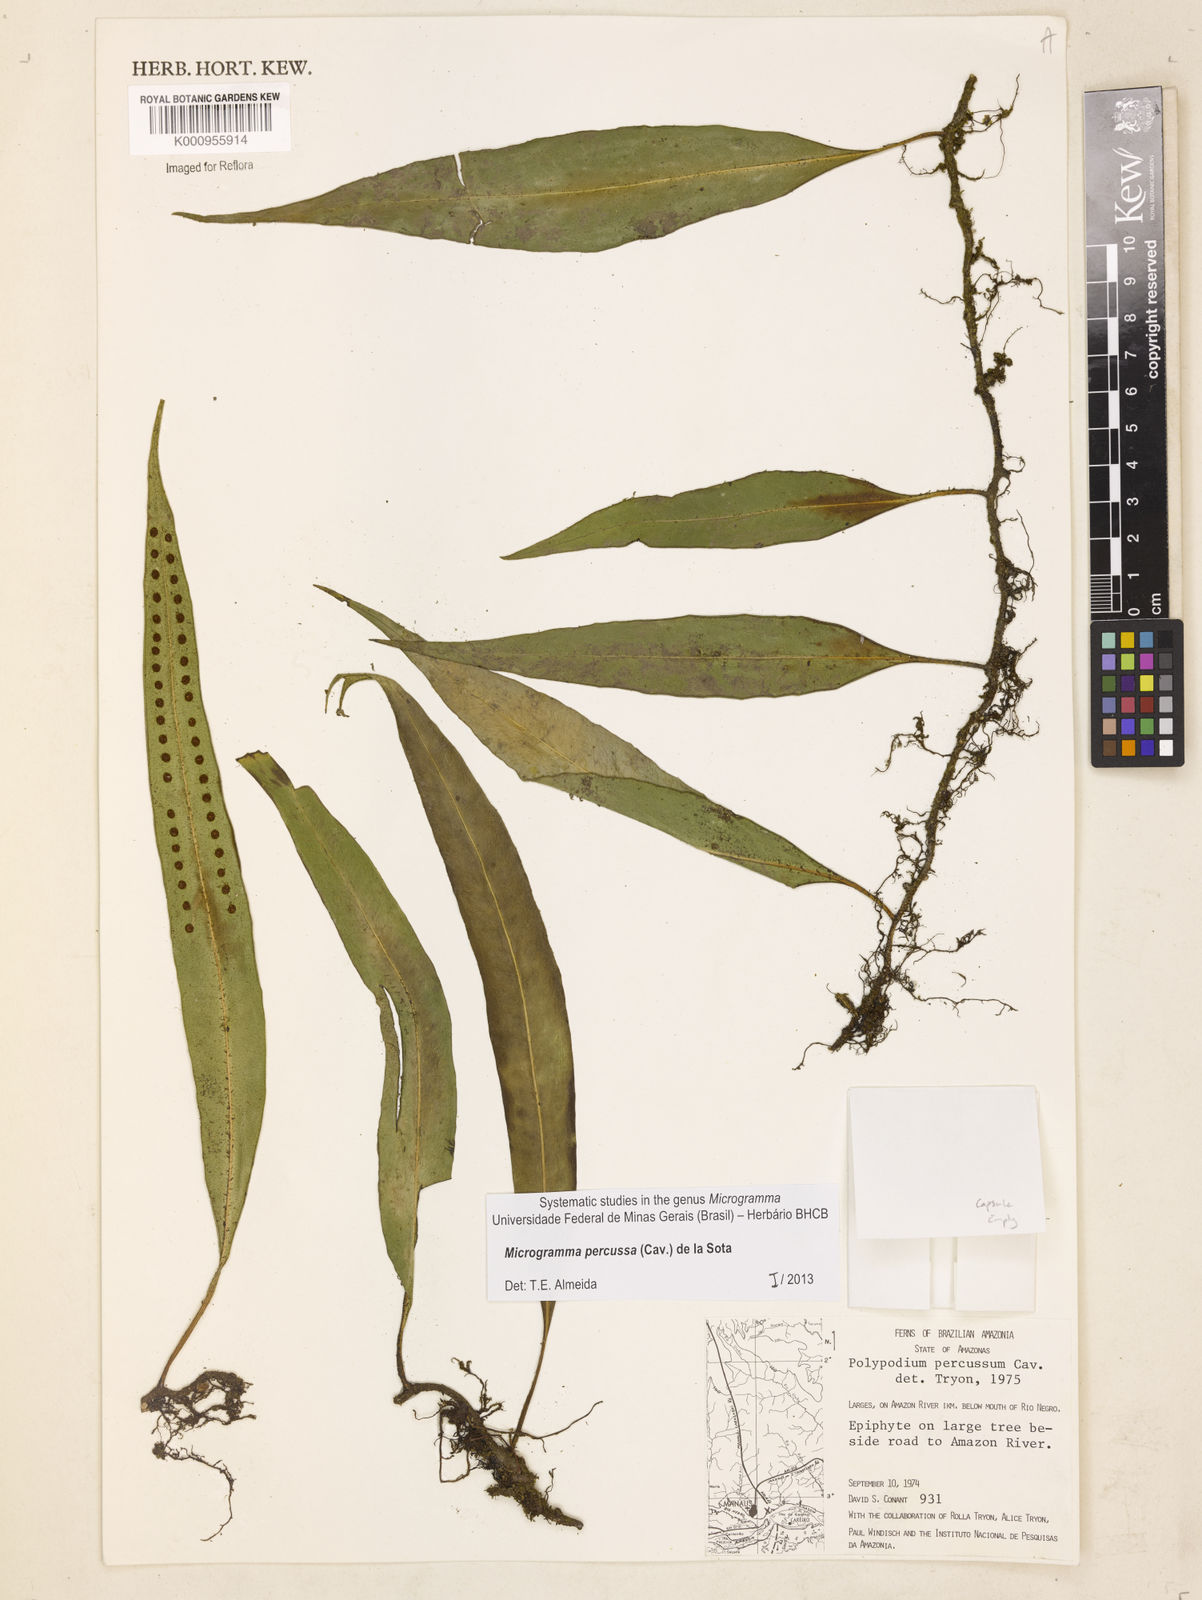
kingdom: Plantae
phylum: Tracheophyta
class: Polypodiopsida
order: Polypodiales
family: Polypodiaceae
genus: Microgramma
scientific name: Microgramma percussa
